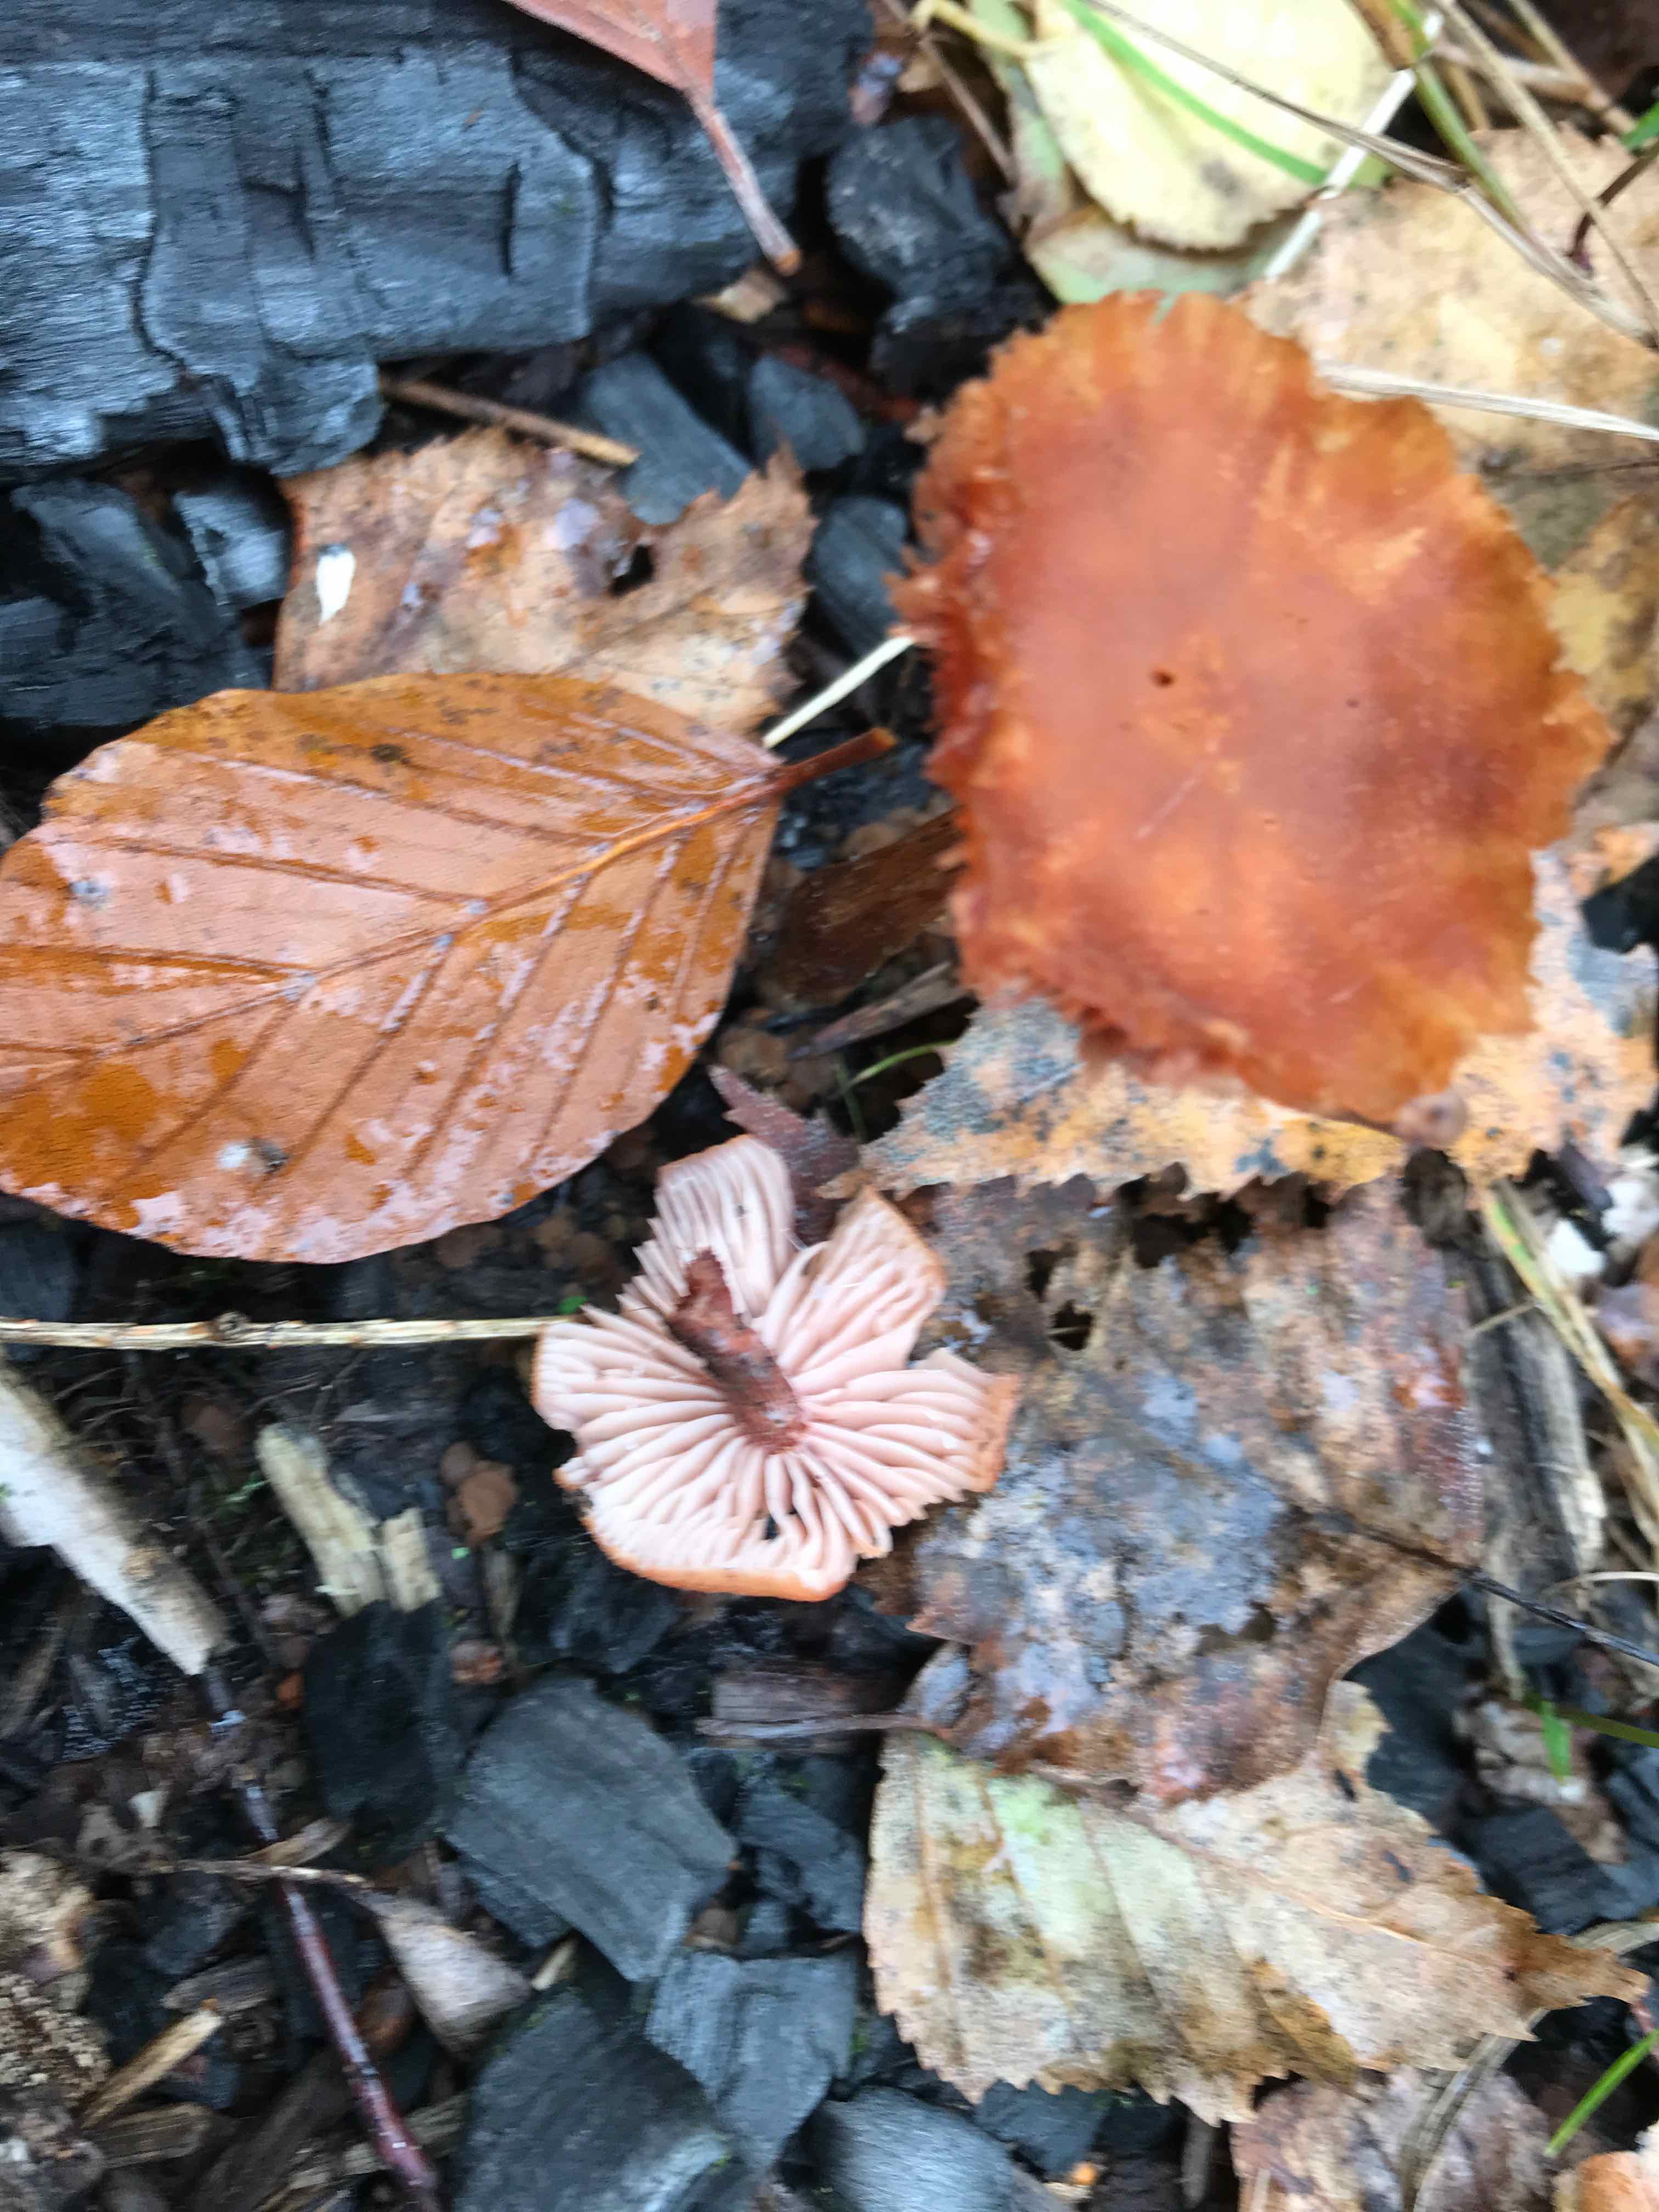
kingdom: Fungi
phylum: Basidiomycota
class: Agaricomycetes
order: Agaricales
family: Hydnangiaceae
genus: Laccaria
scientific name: Laccaria laccata
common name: rød ametysthat
